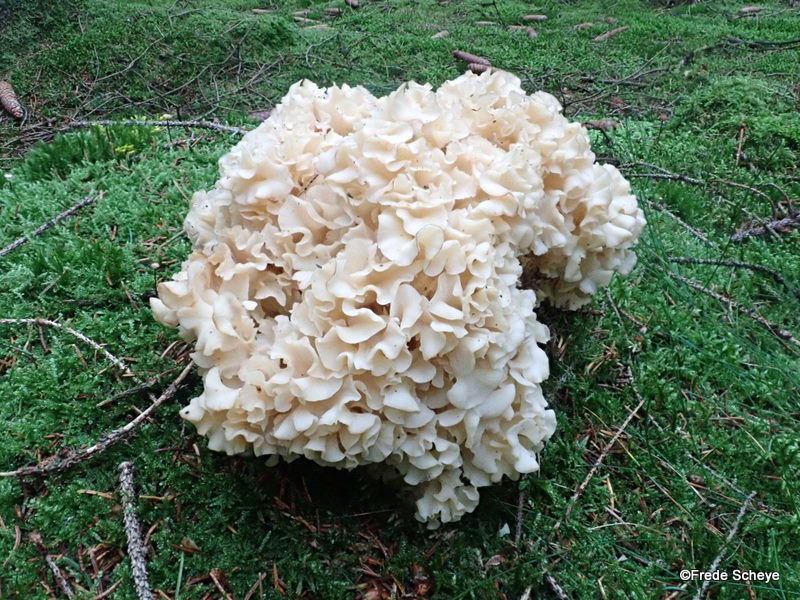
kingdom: Fungi
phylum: Basidiomycota
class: Agaricomycetes
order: Polyporales
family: Sparassidaceae
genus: Sparassis
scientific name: Sparassis crispa
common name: kruset blomkålssvamp
